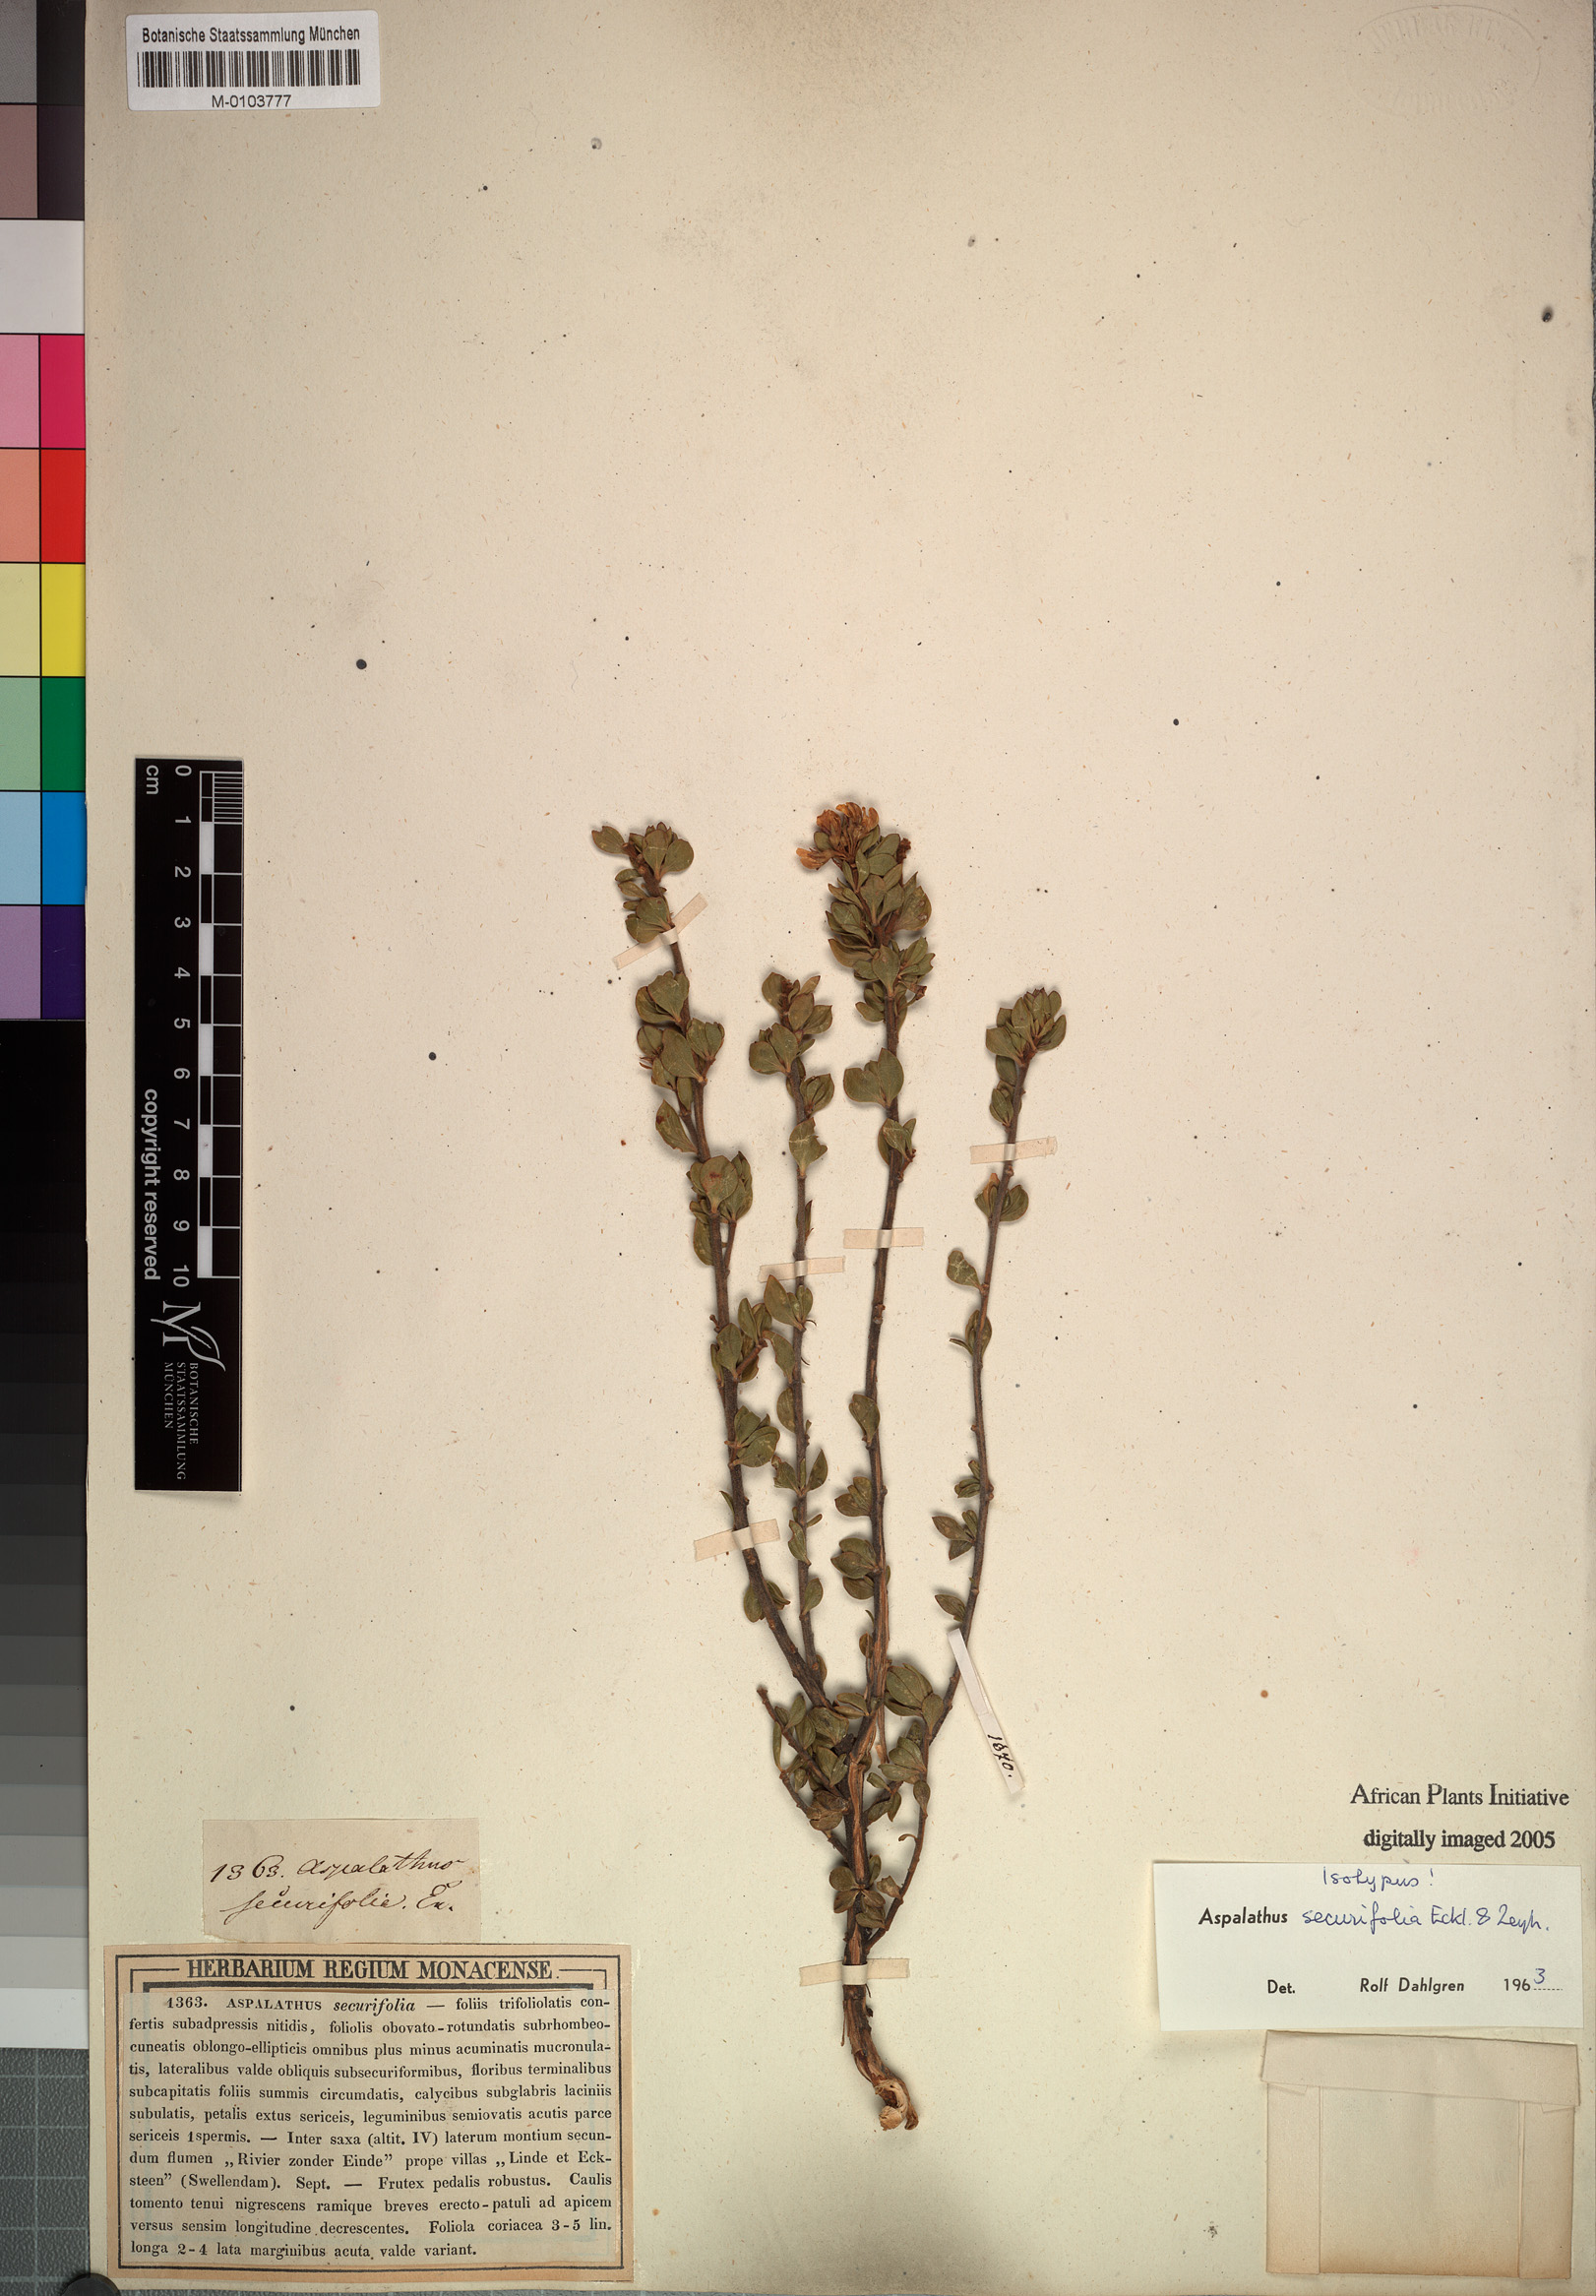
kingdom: Plantae
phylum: Tracheophyta
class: Magnoliopsida
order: Fabales
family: Fabaceae
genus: Aspalathus
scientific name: Aspalathus securifolia
